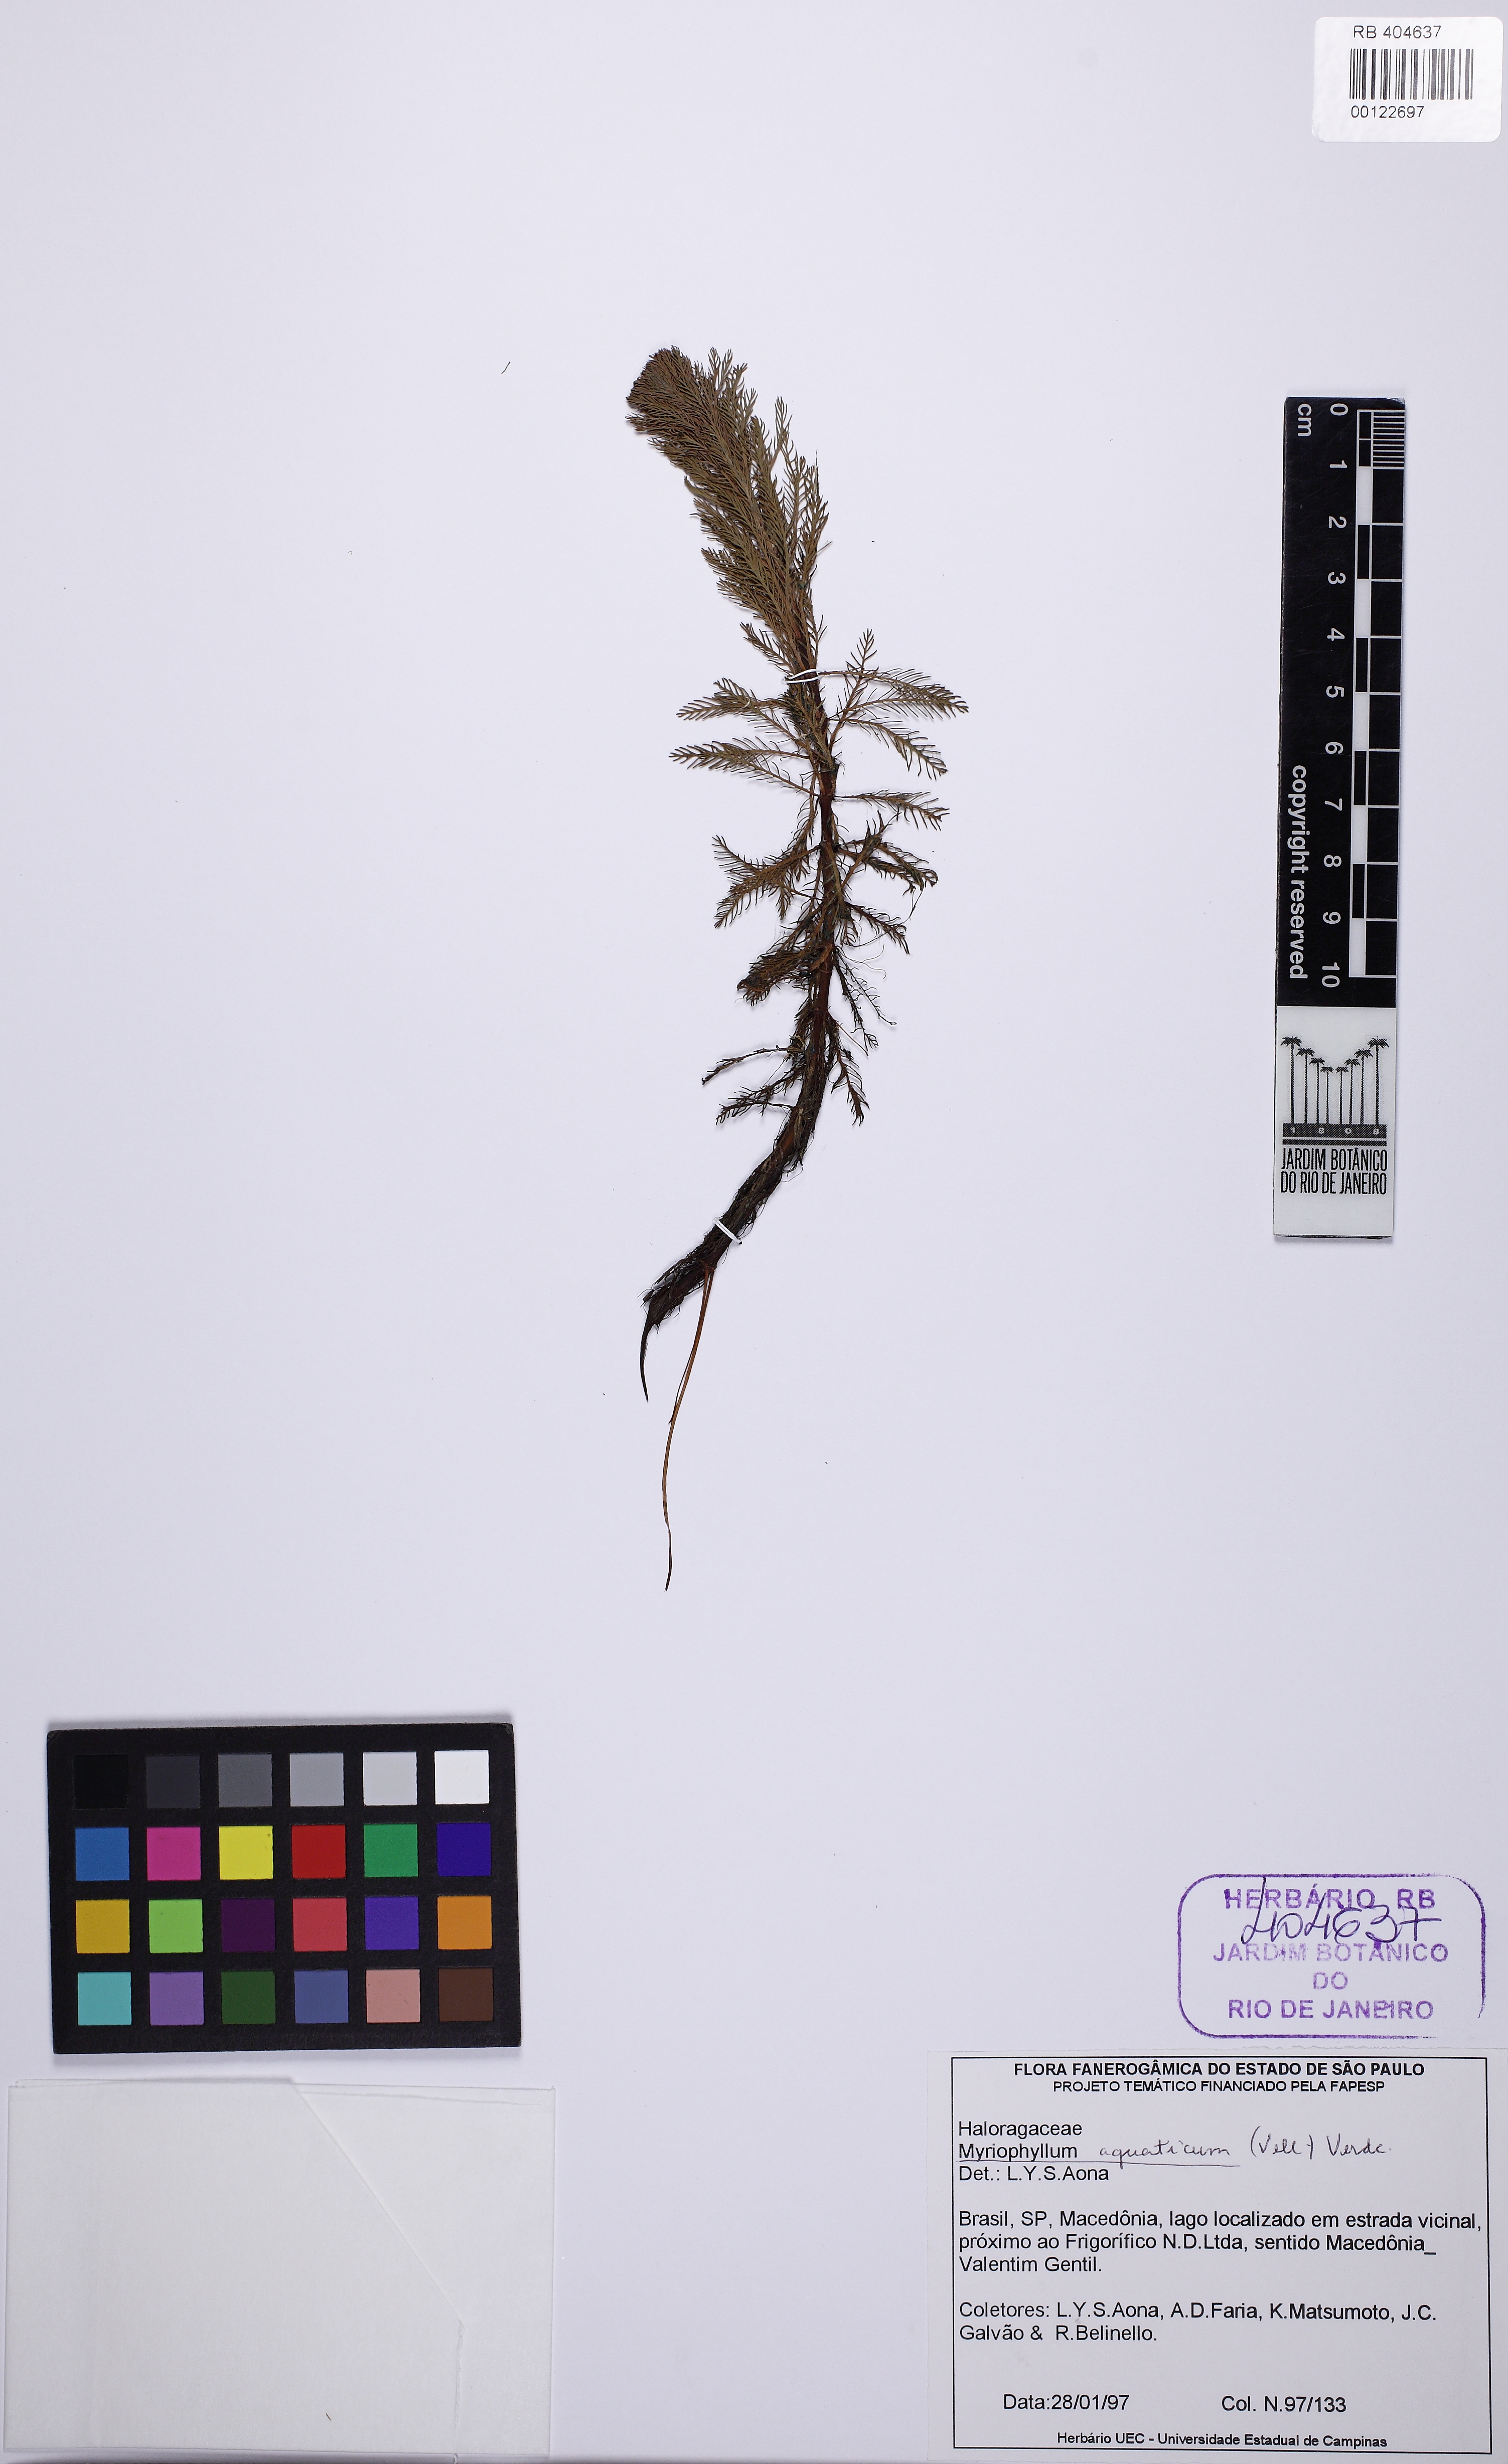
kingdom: Plantae
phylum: Tracheophyta
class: Magnoliopsida
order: Saxifragales
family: Haloragaceae
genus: Myriophyllum
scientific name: Myriophyllum aquaticum
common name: Parrot's feather
